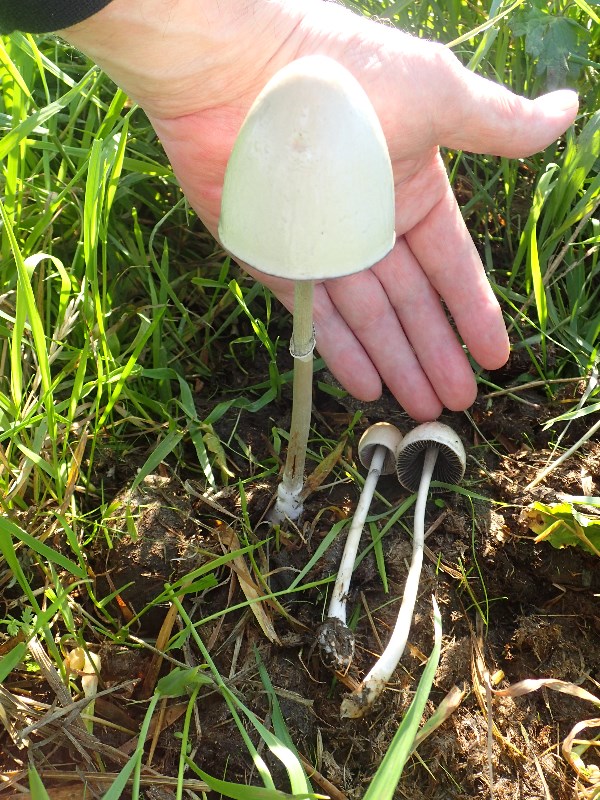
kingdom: Fungi
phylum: Basidiomycota
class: Agaricomycetes
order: Agaricales
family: Bolbitiaceae
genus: Panaeolus
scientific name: Panaeolus semiovatus
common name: ring-glanshat
